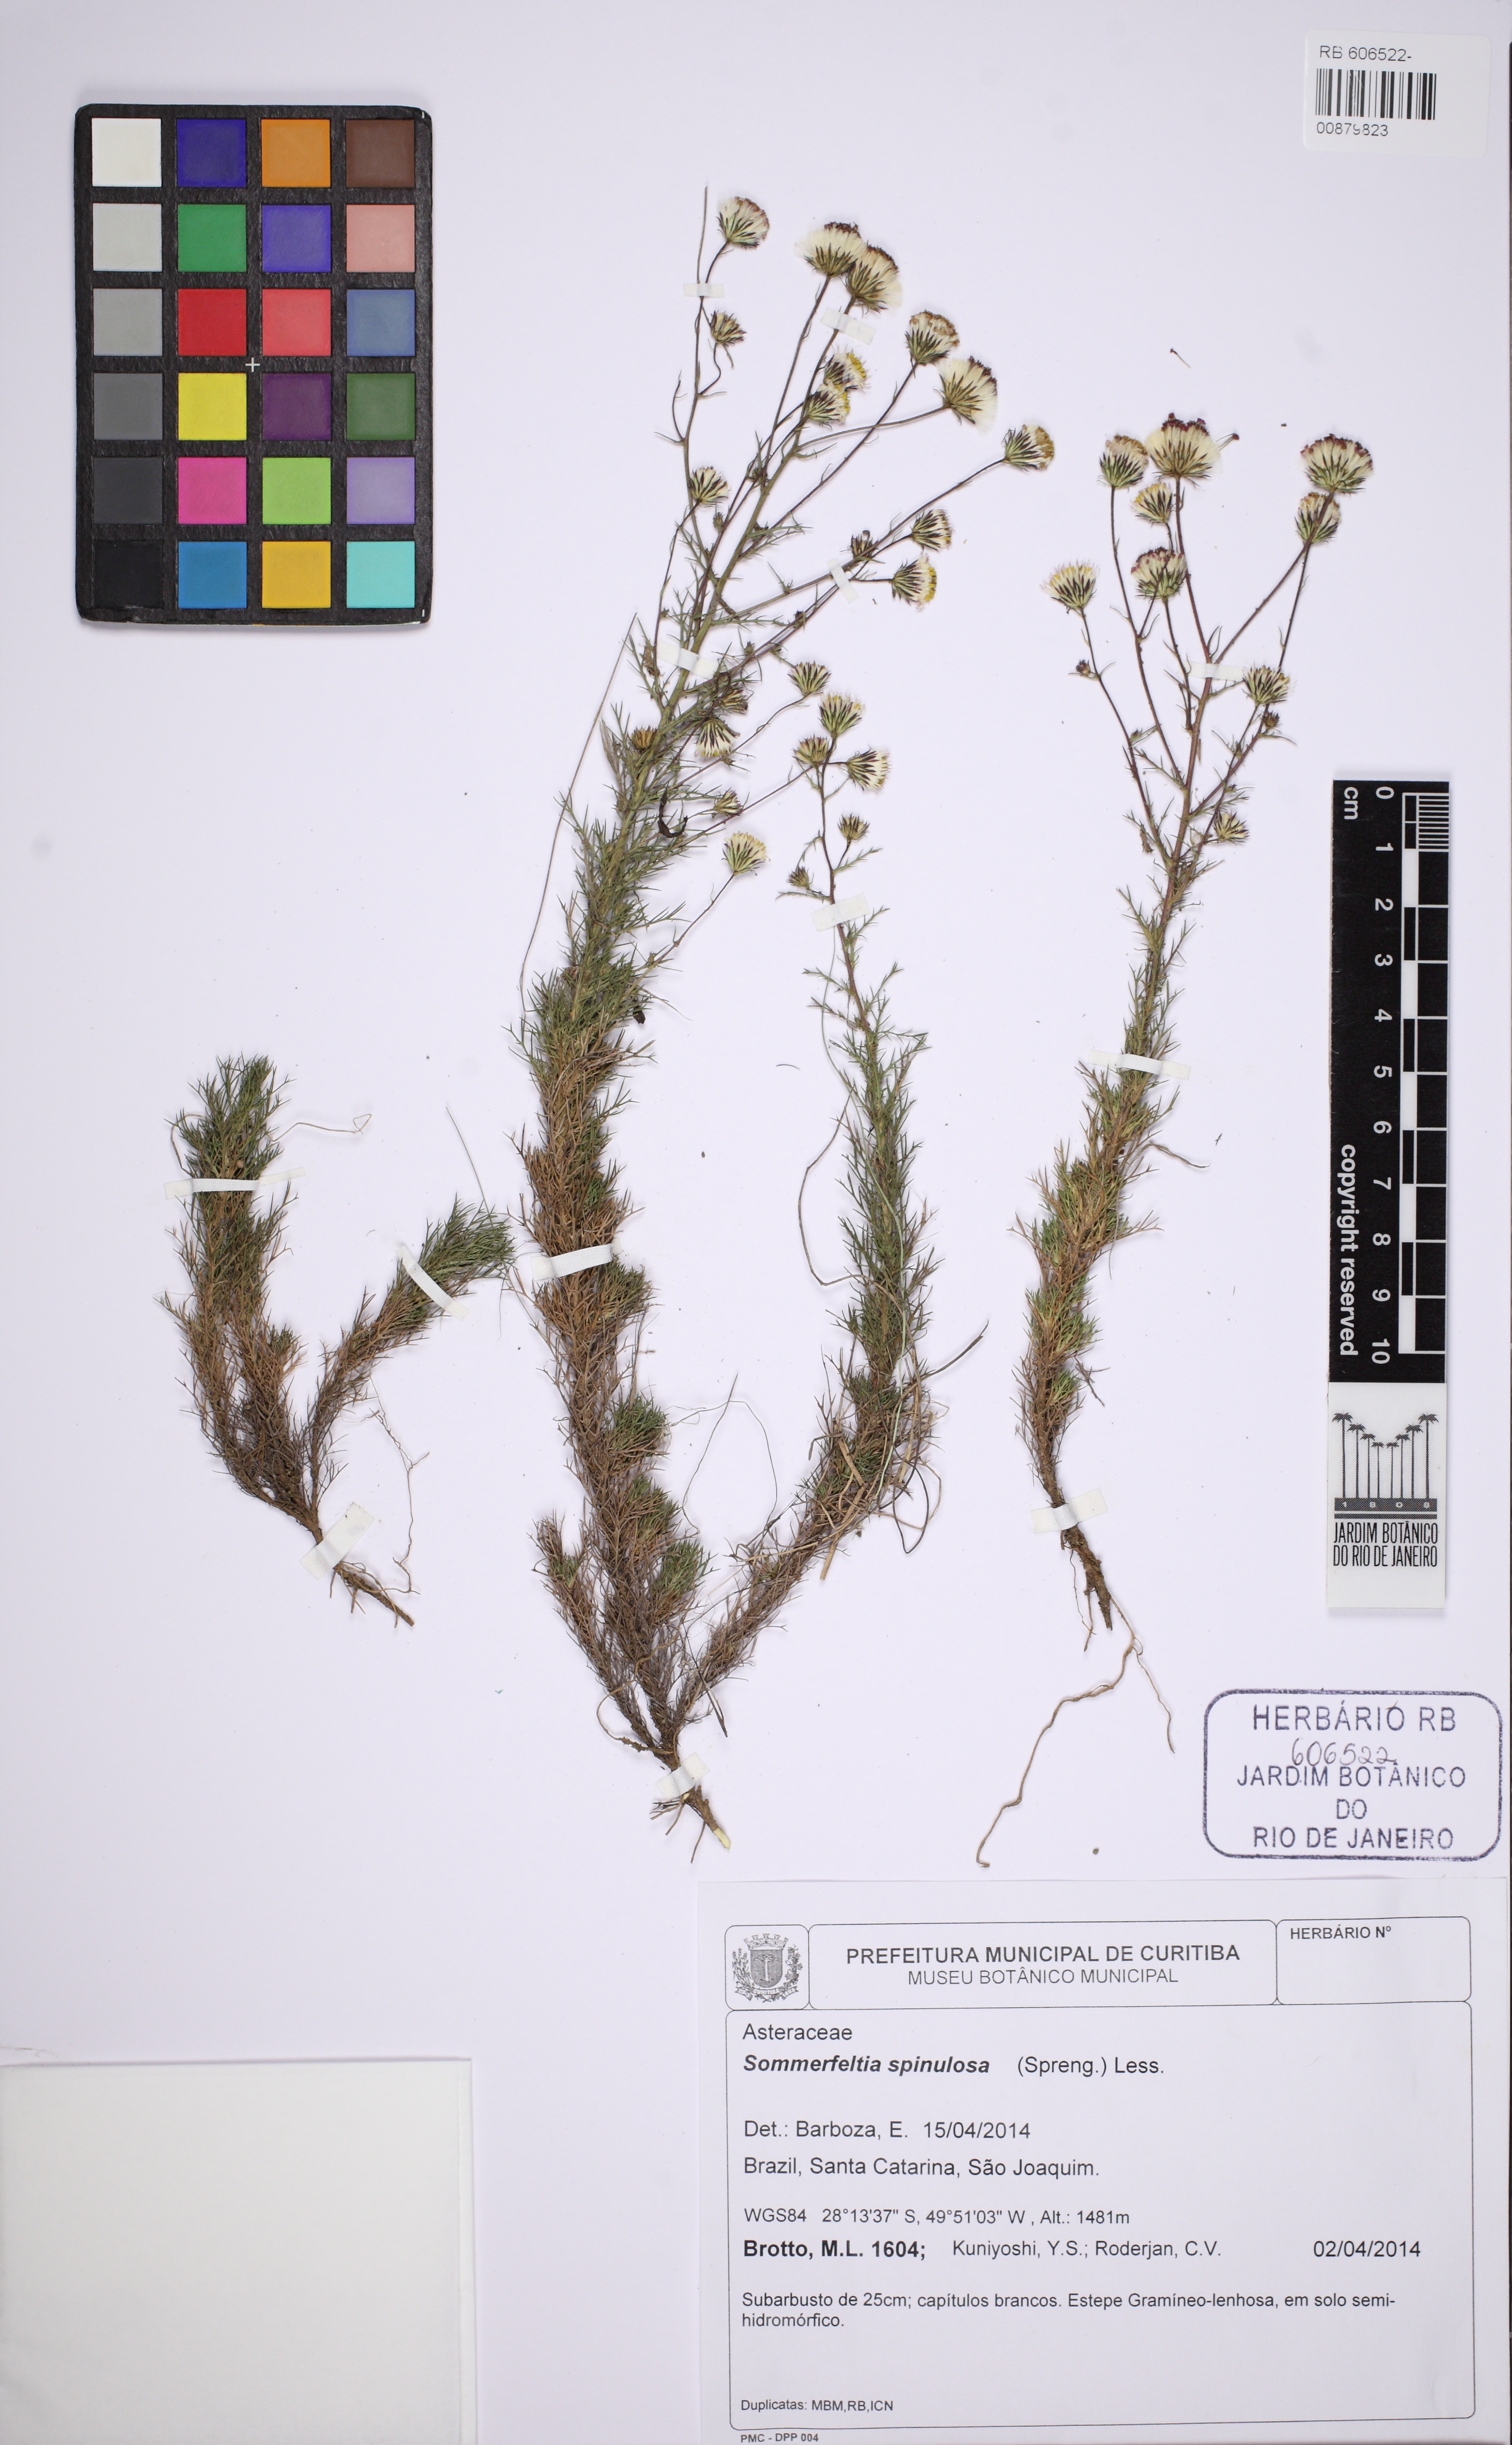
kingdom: Plantae
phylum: Tracheophyta
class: Magnoliopsida
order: Asterales
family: Asteraceae
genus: Sommerfeltia
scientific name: Sommerfeltia spinulosa
